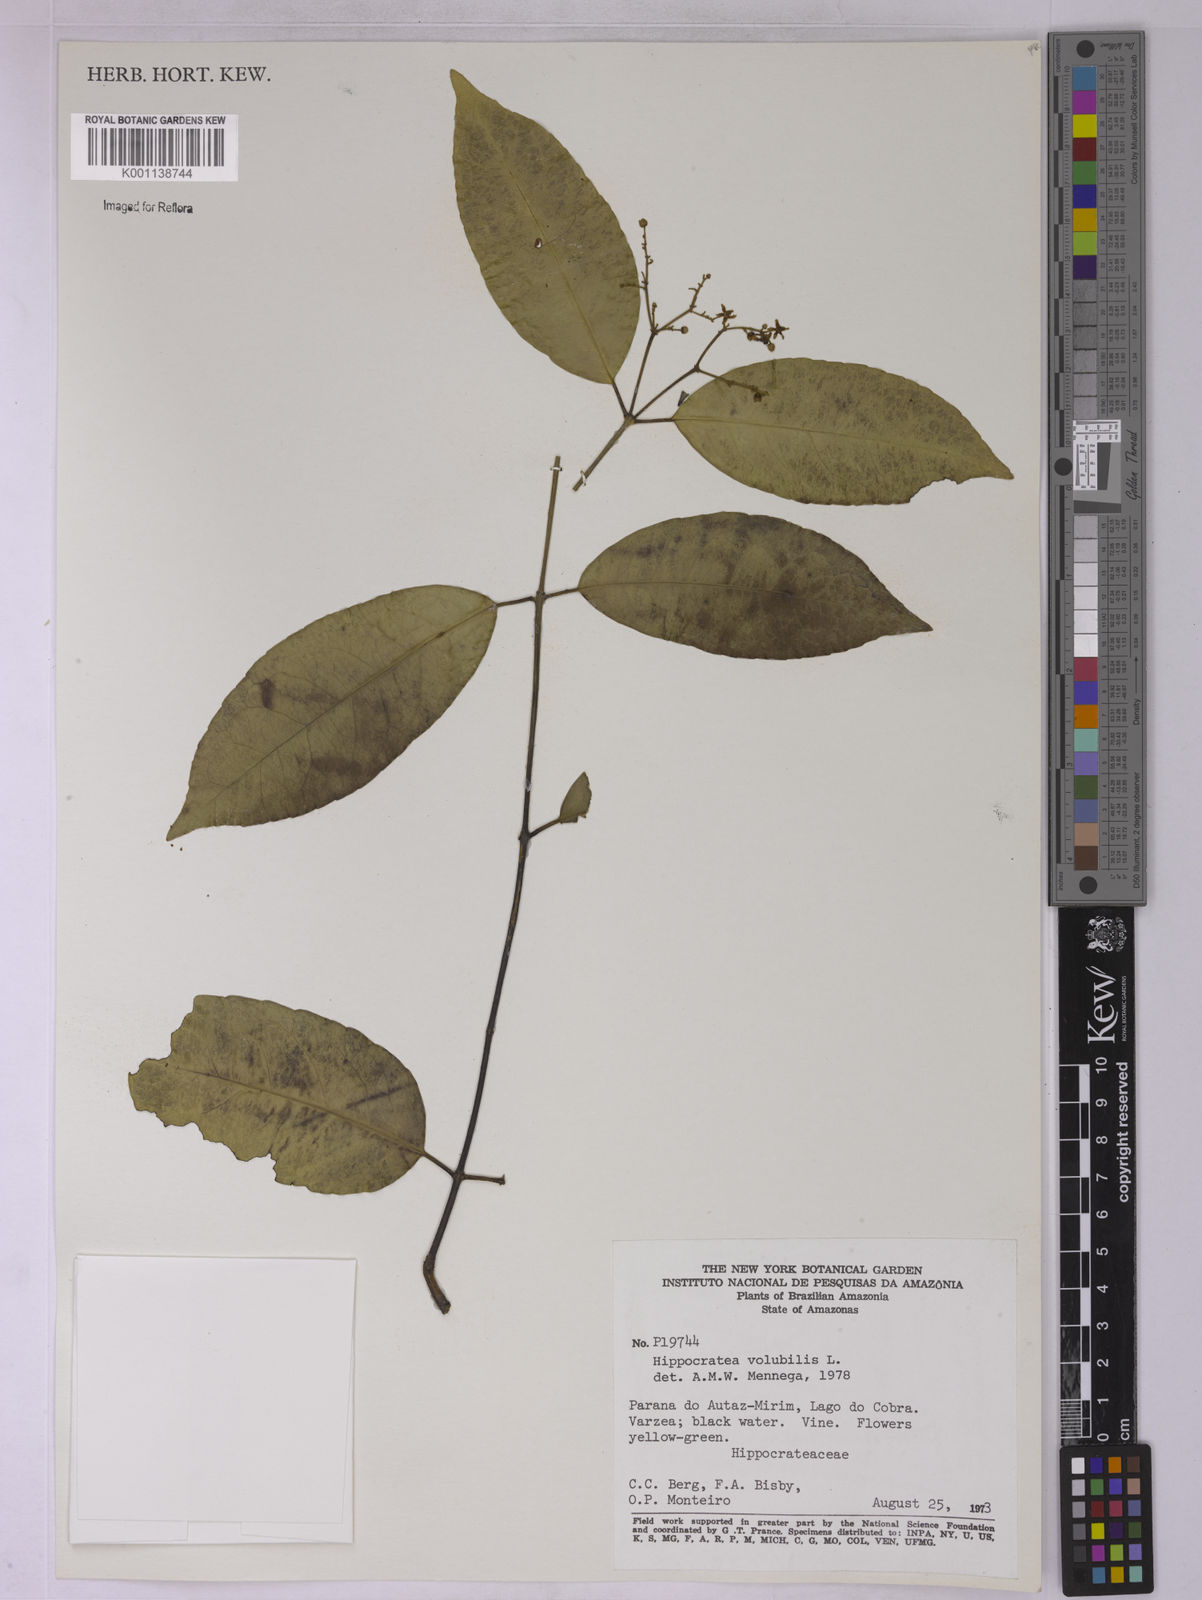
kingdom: Plantae
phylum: Tracheophyta
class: Magnoliopsida
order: Celastrales
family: Celastraceae
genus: Hippocratea
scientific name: Hippocratea volubilis
